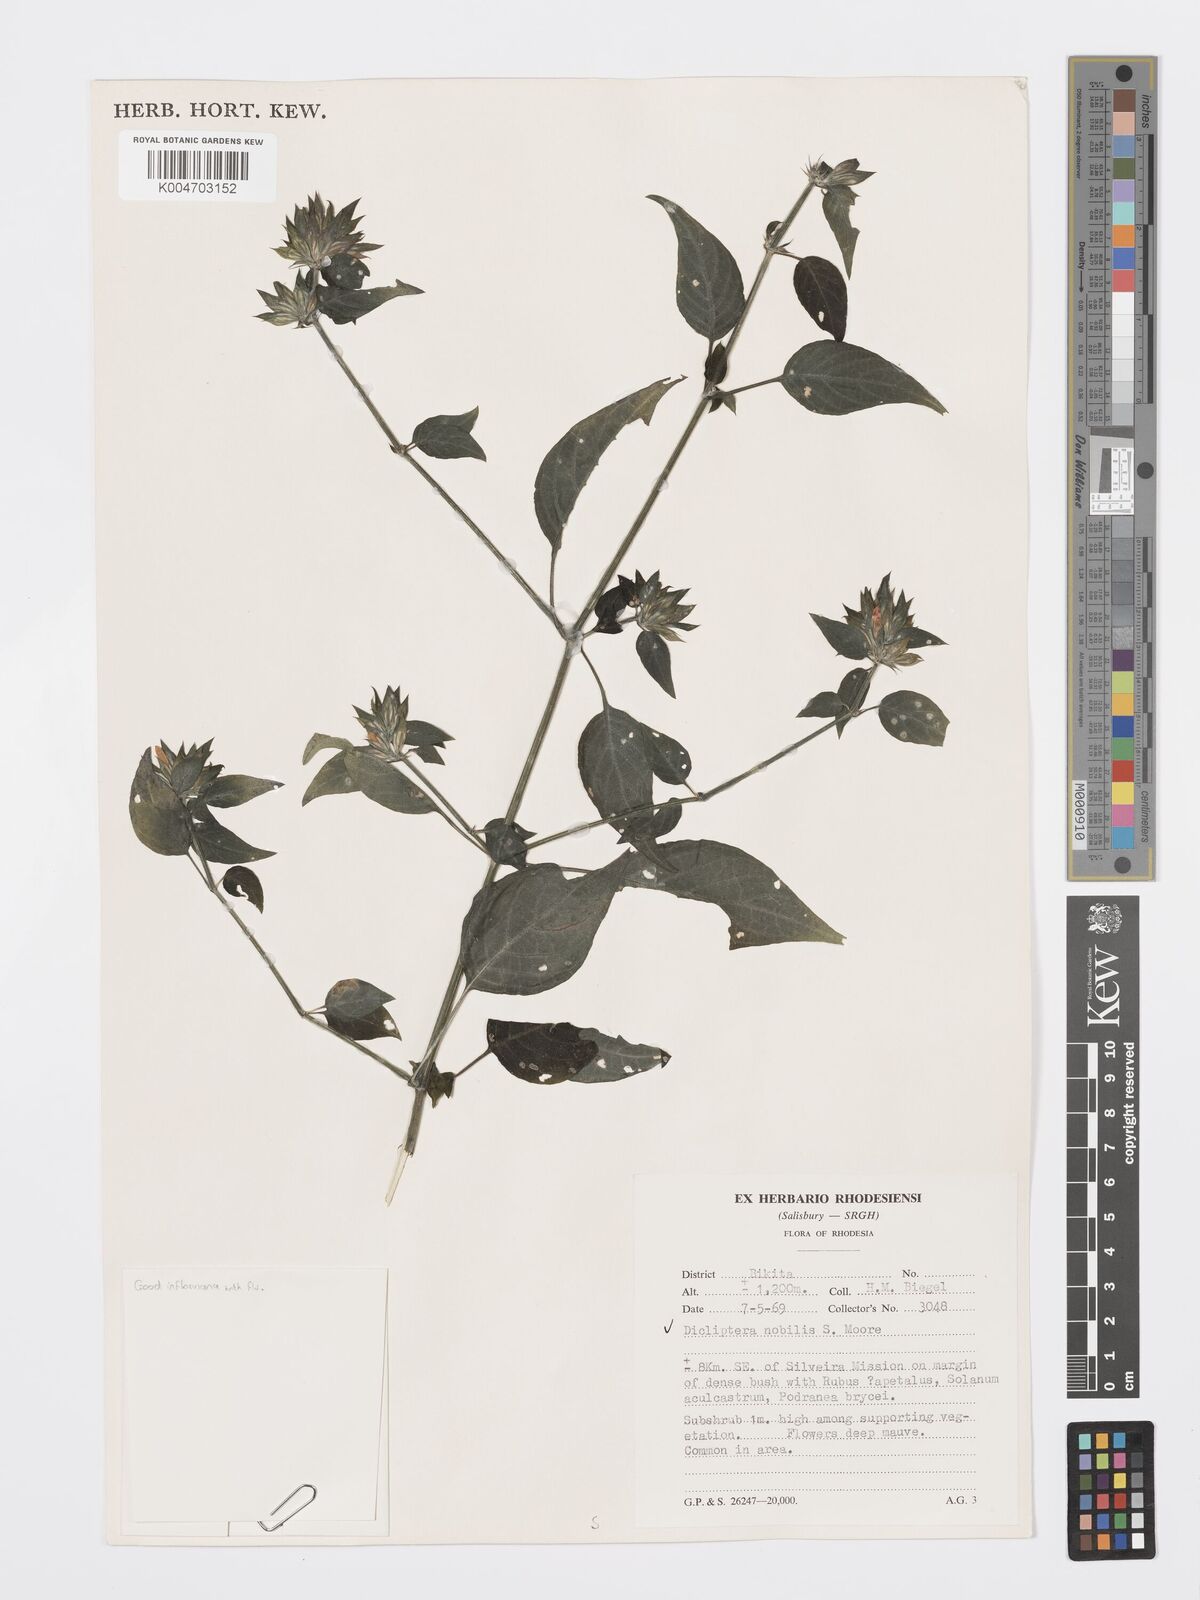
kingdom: Plantae
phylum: Tracheophyta
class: Magnoliopsida
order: Lamiales
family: Acanthaceae
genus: Dicliptera
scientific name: Dicliptera clinopodia
